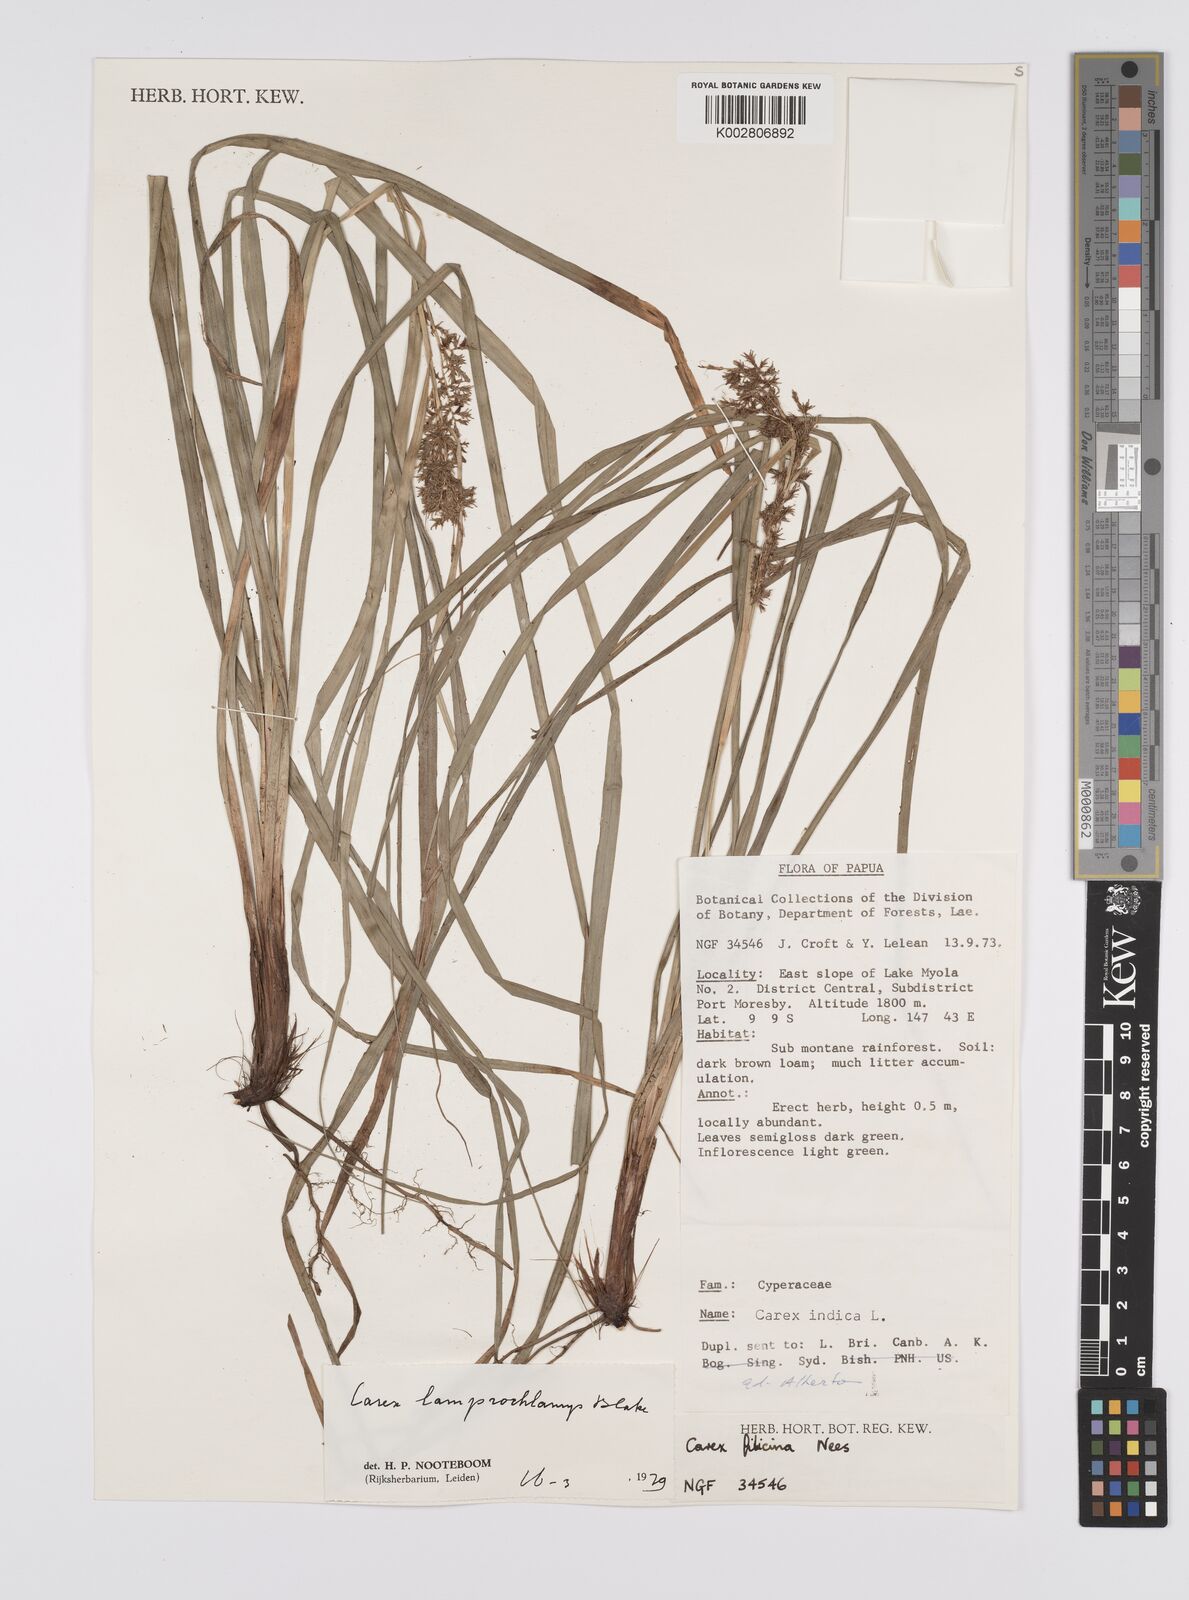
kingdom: Plantae
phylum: Tracheophyta
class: Liliopsida
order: Poales
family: Cyperaceae
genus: Carex
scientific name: Carex lamprochlamys
